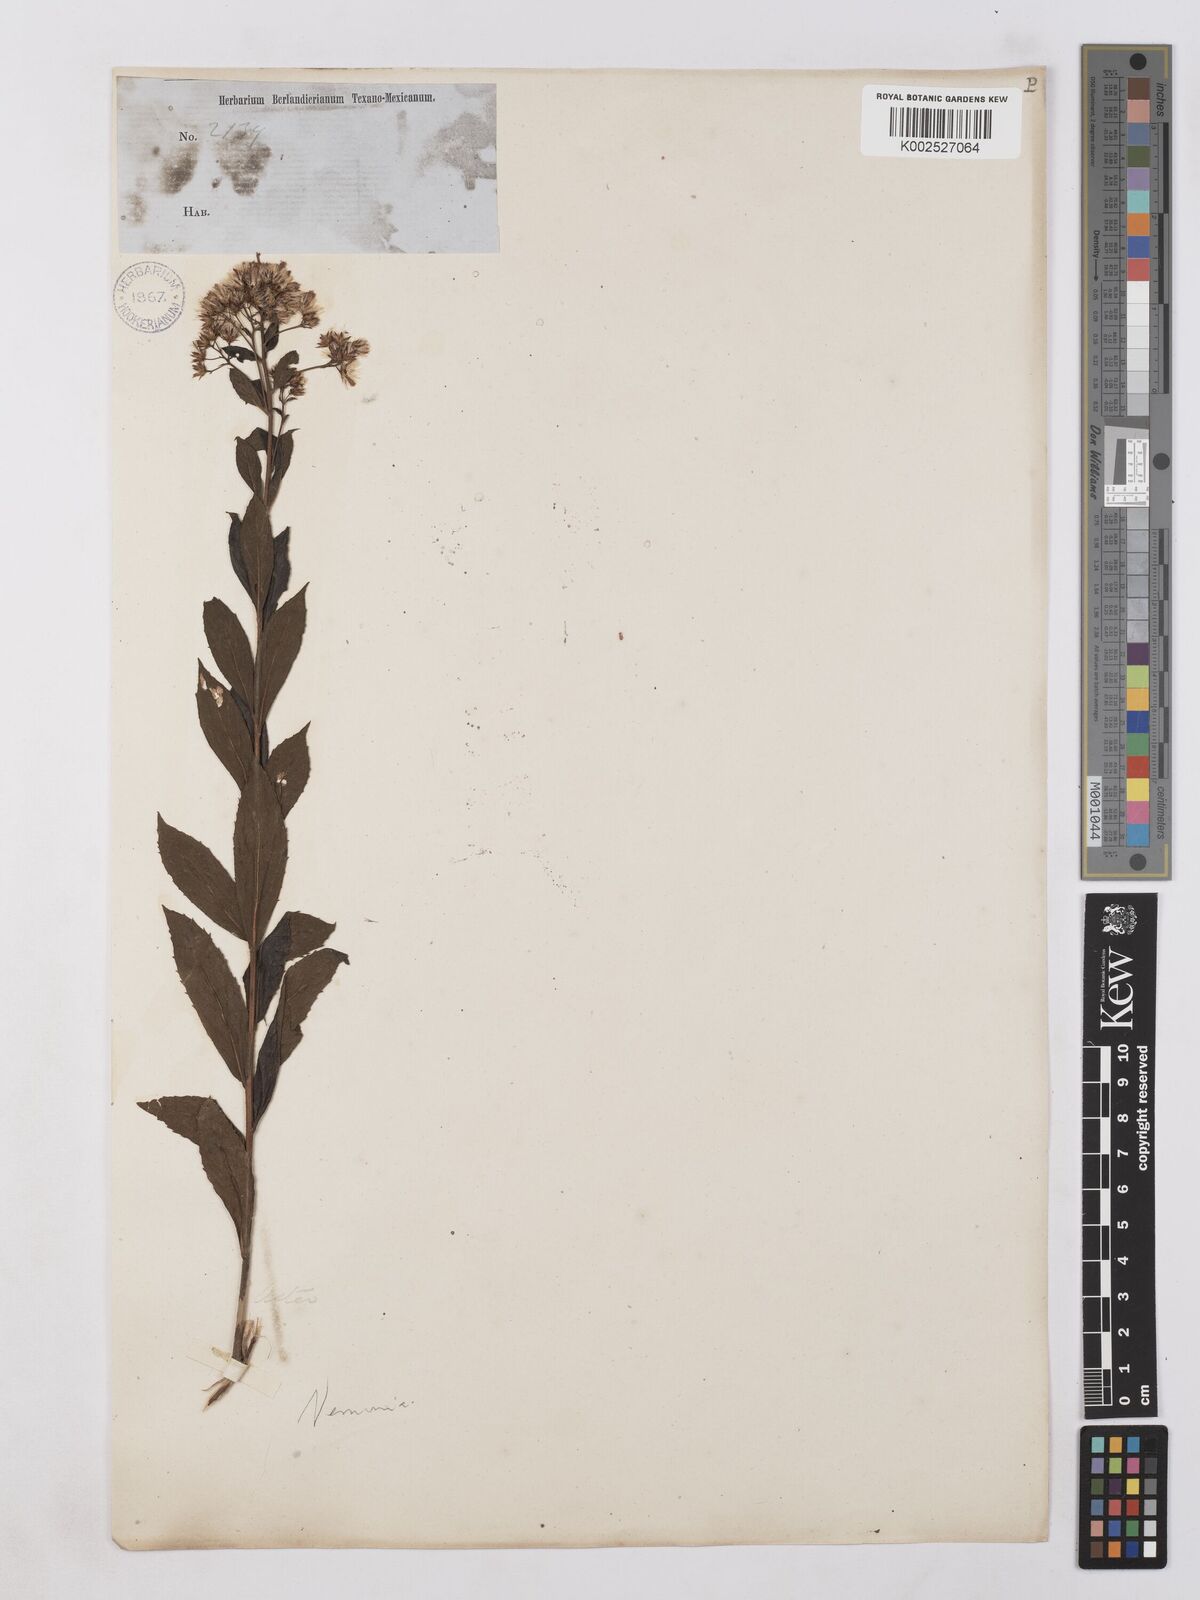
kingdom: Plantae
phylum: Tracheophyta
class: Magnoliopsida
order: Asterales
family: Asteraceae
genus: Vernonia
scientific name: Vernonia
